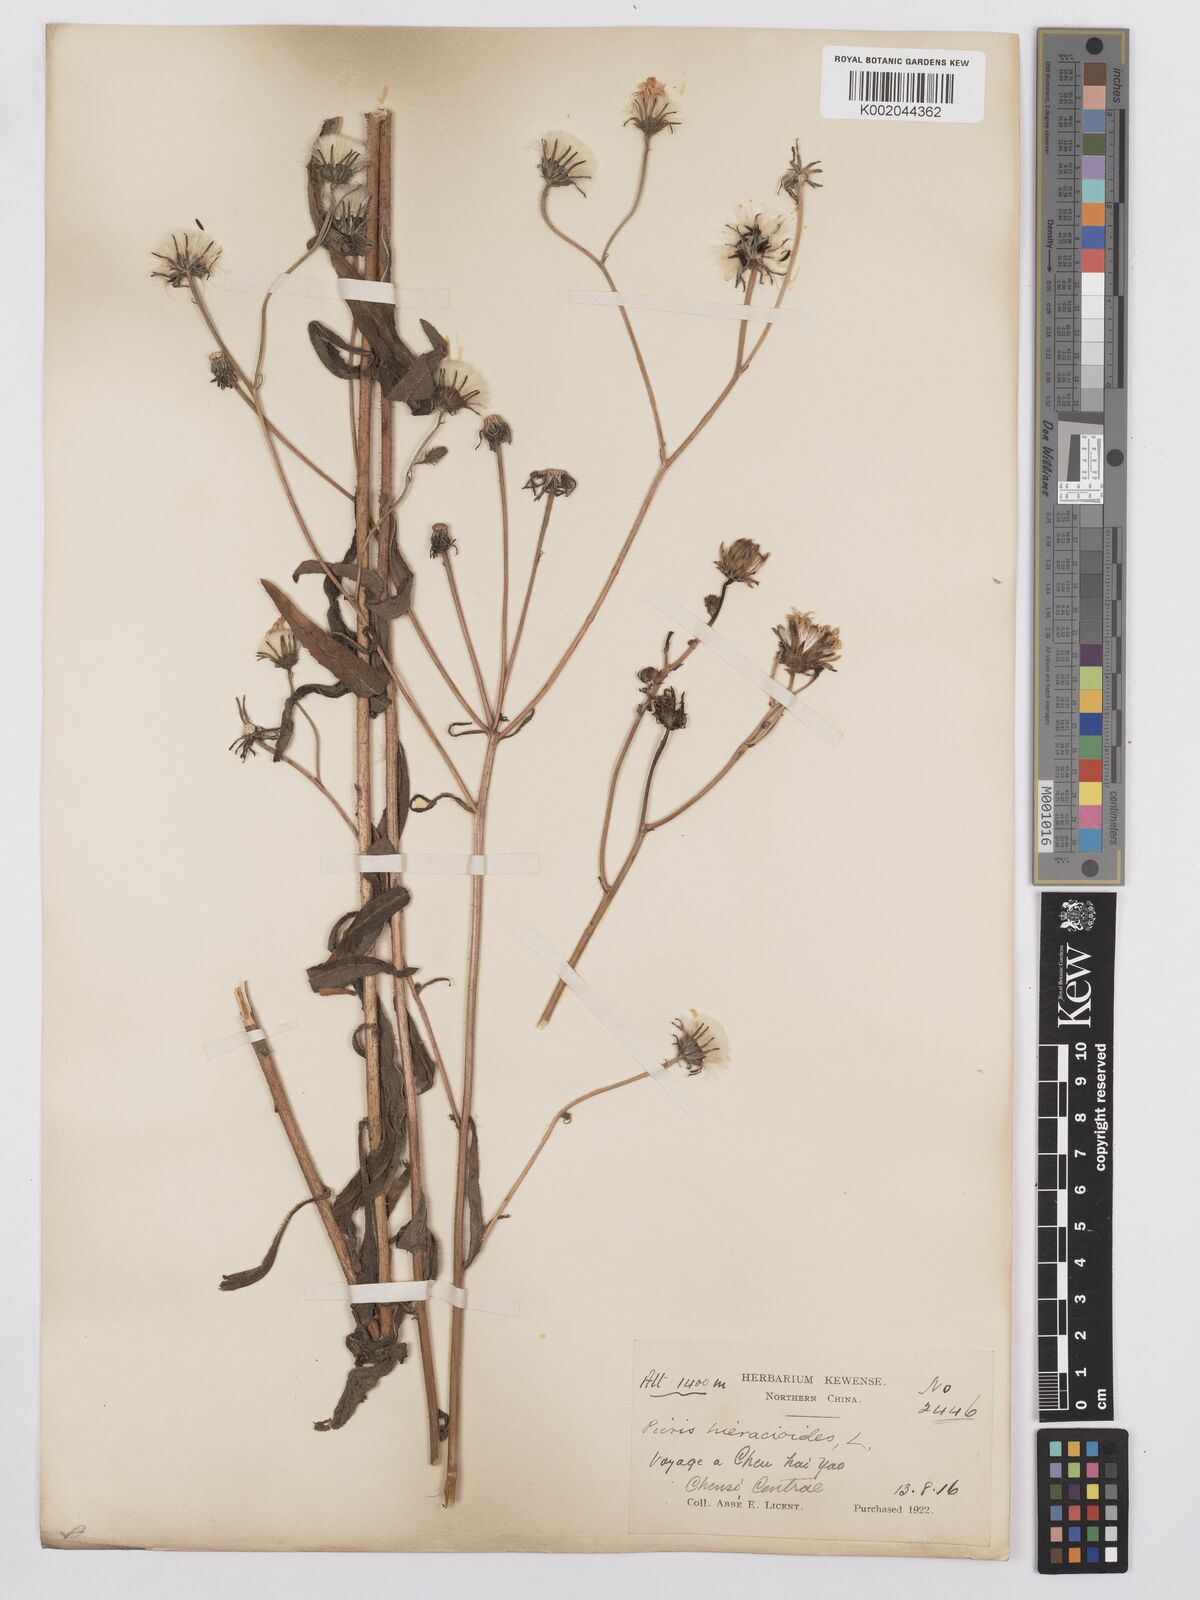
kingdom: Plantae
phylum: Tracheophyta
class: Magnoliopsida
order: Asterales
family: Asteraceae
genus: Picris
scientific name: Picris hieracioides
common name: Hawkweed oxtongue
